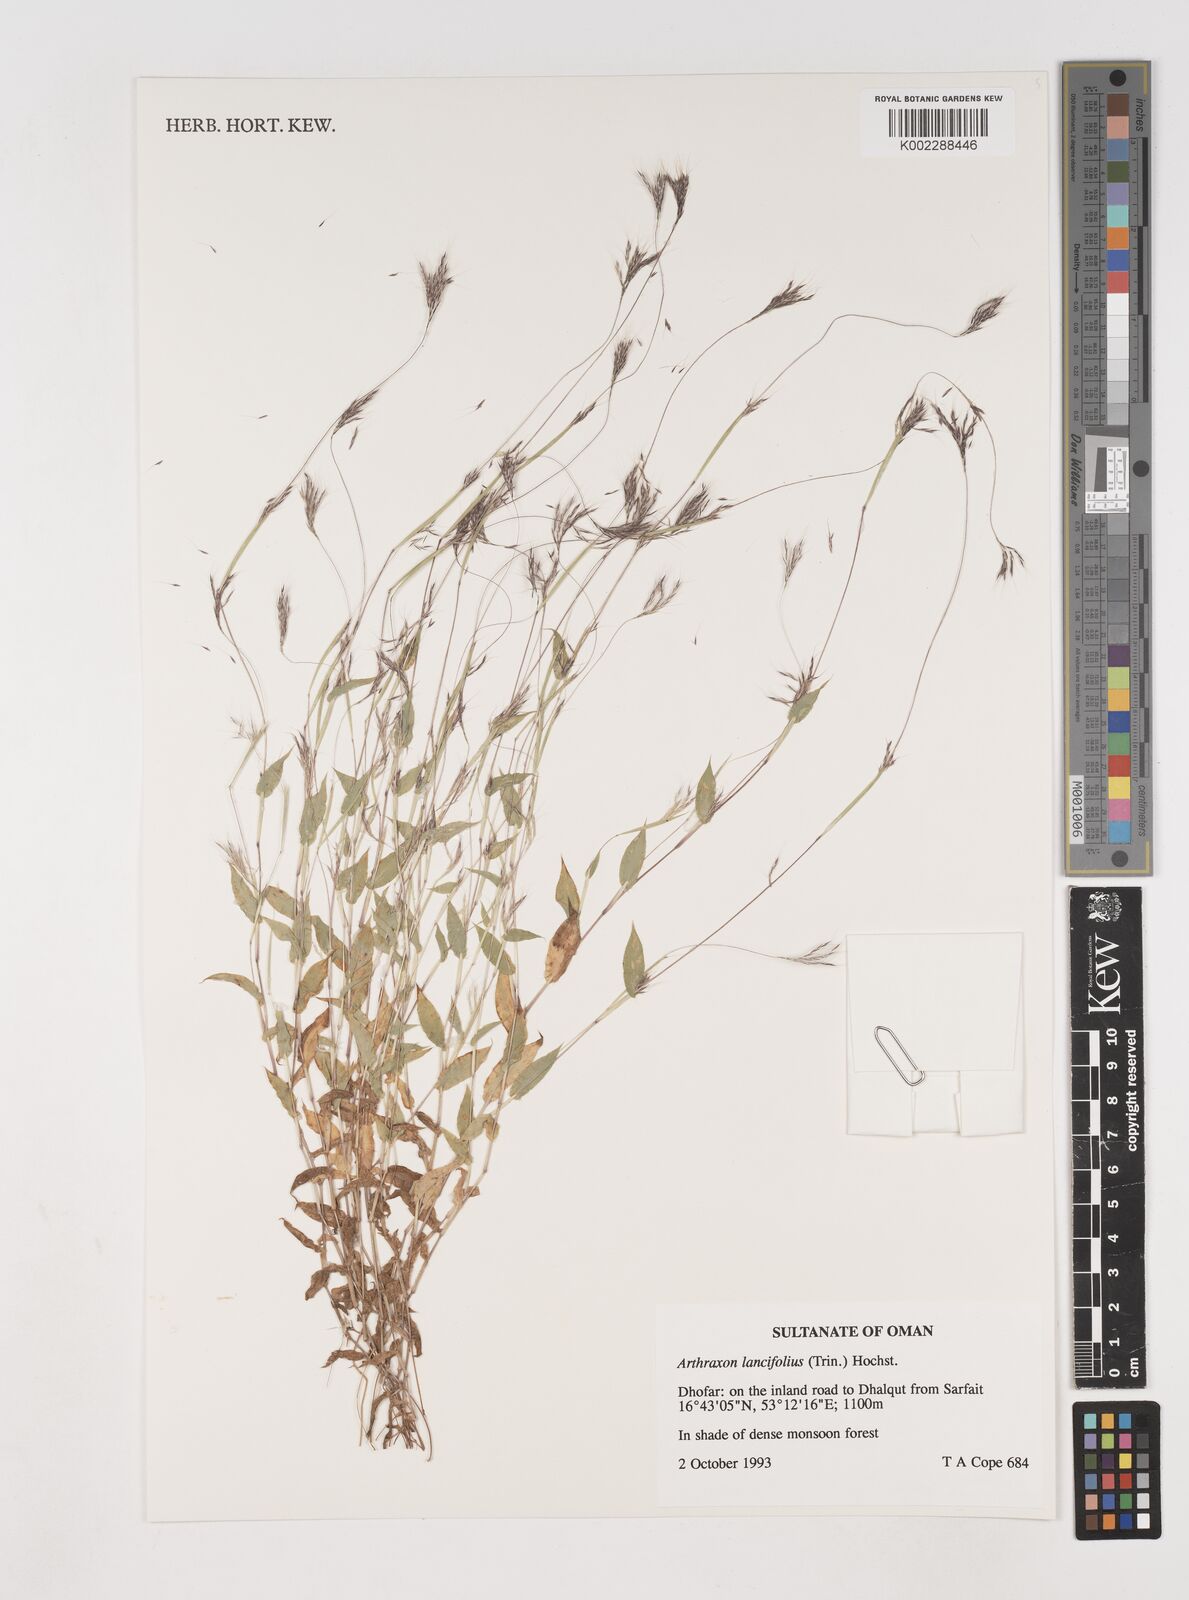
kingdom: Plantae
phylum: Tracheophyta
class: Liliopsida
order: Poales
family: Poaceae
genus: Arthraxon
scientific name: Arthraxon lancifolius
